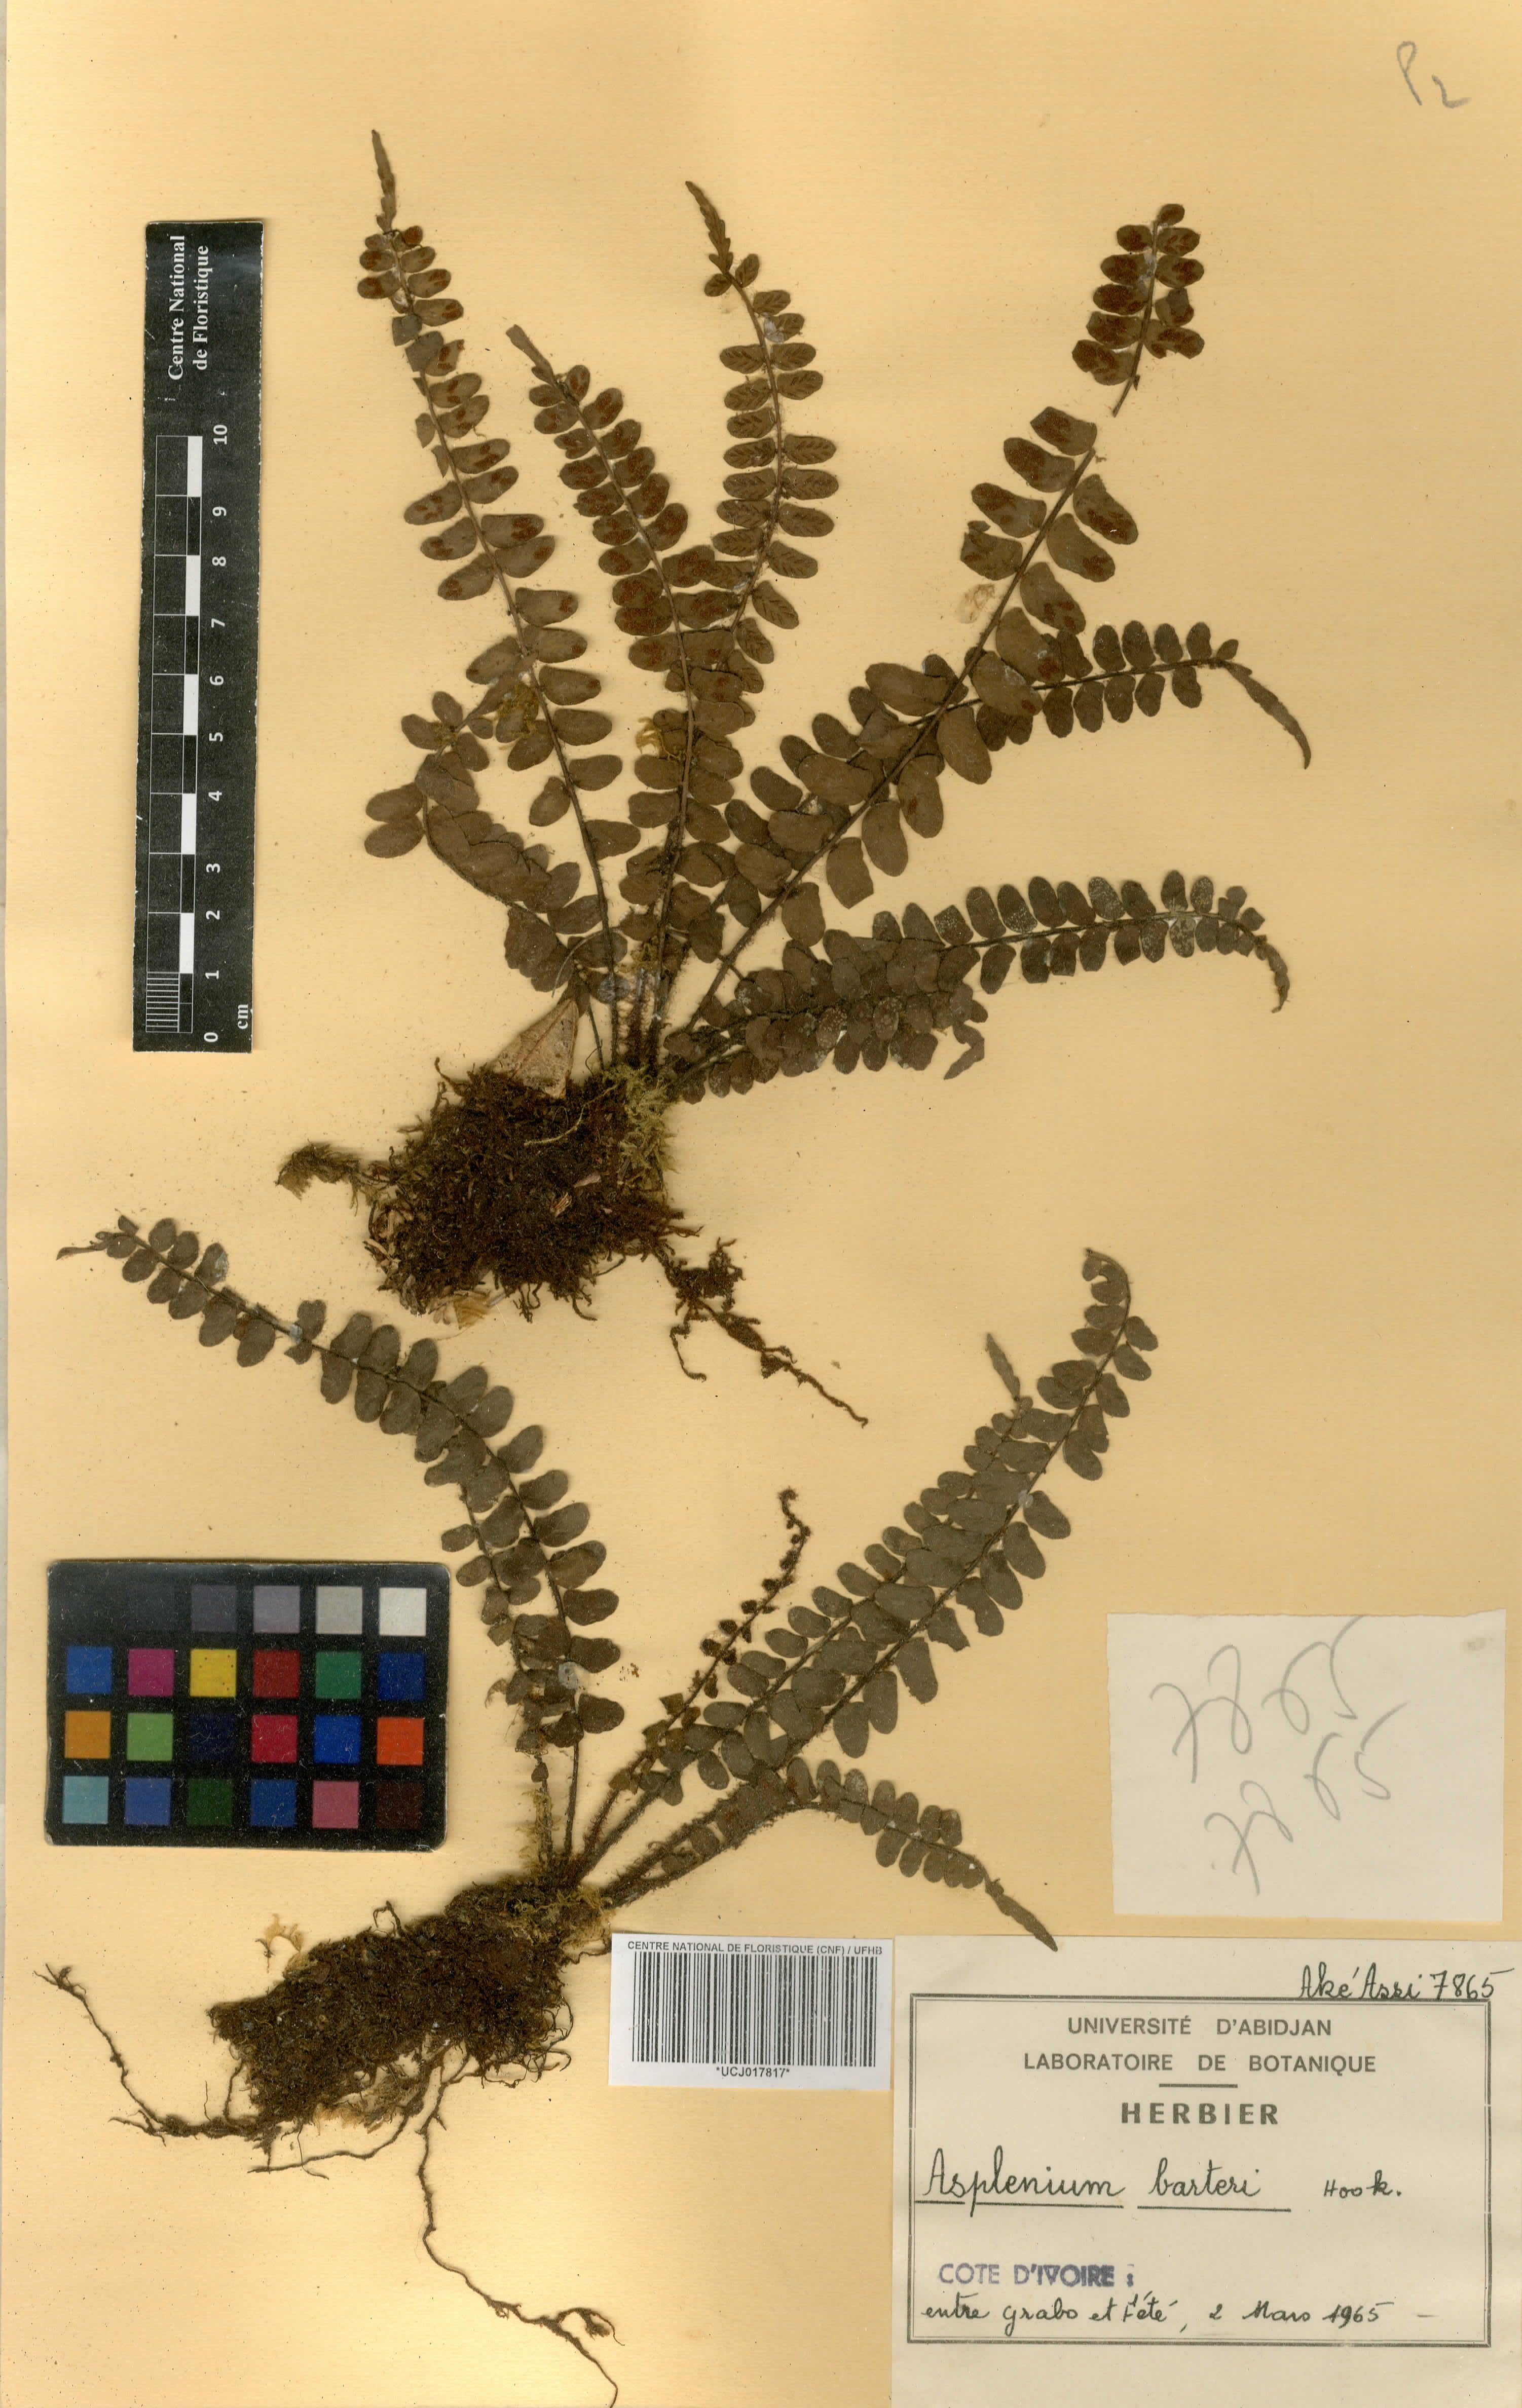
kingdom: Plantae
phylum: Tracheophyta
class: Polypodiopsida
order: Polypodiales
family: Aspleniaceae
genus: Asplenium
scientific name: Asplenium barteri
